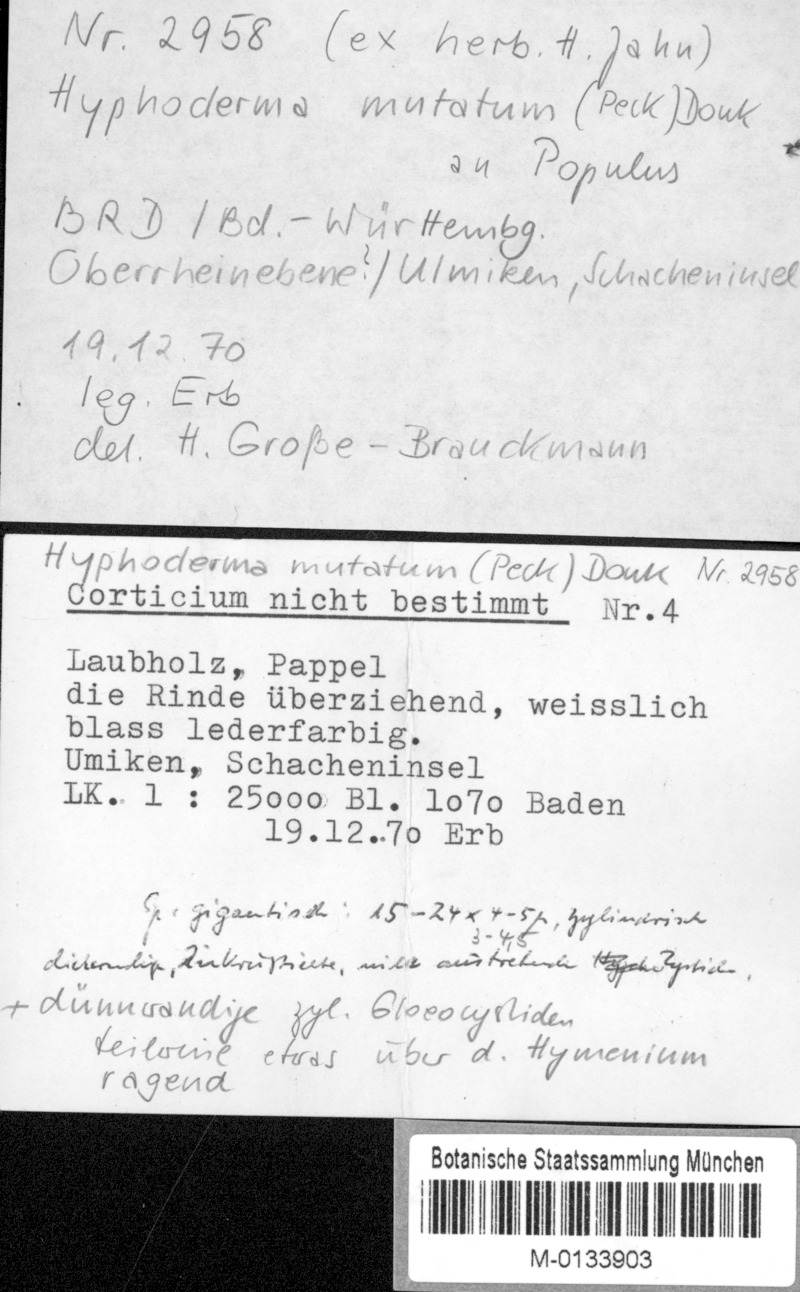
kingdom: Fungi
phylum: Basidiomycota
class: Agaricomycetes
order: Polyporales
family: Hyphodermataceae
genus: Mutatoderma
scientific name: Mutatoderma mutatum
